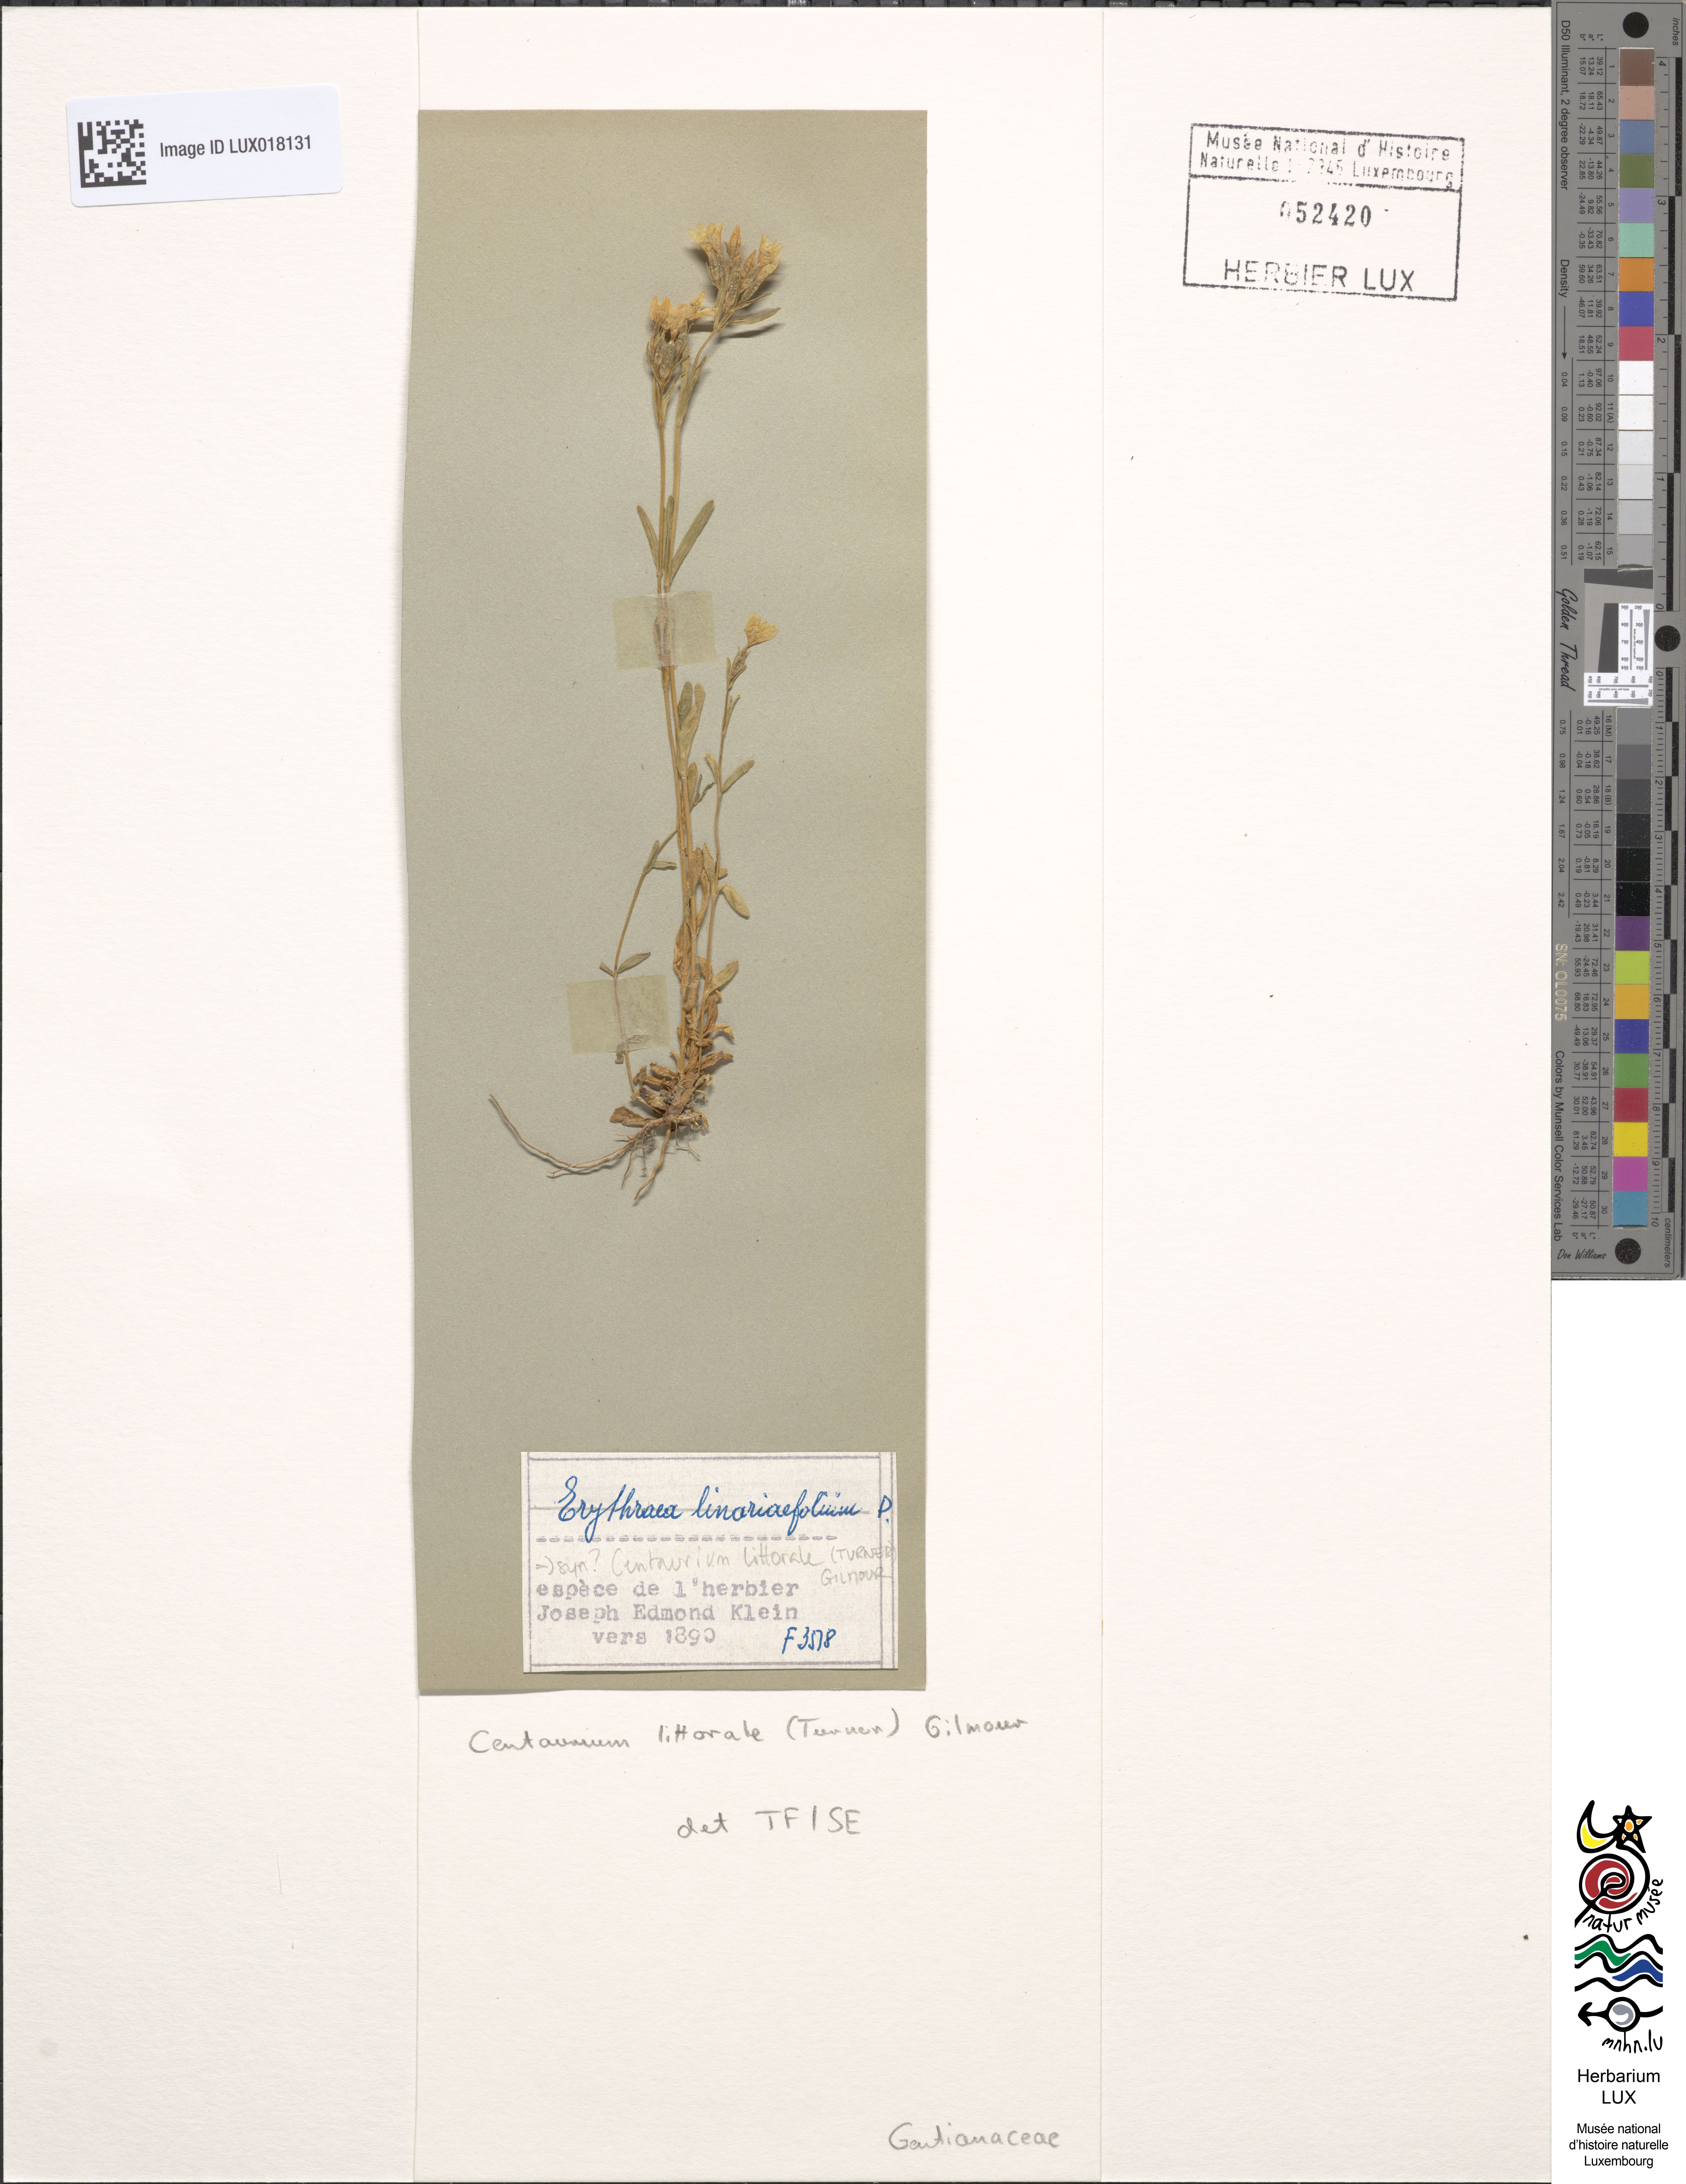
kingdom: Plantae
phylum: Tracheophyta
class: Magnoliopsida
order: Gentianales
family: Gentianaceae
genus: Centaurium
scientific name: Centaurium littorale
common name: Seaside centaury
